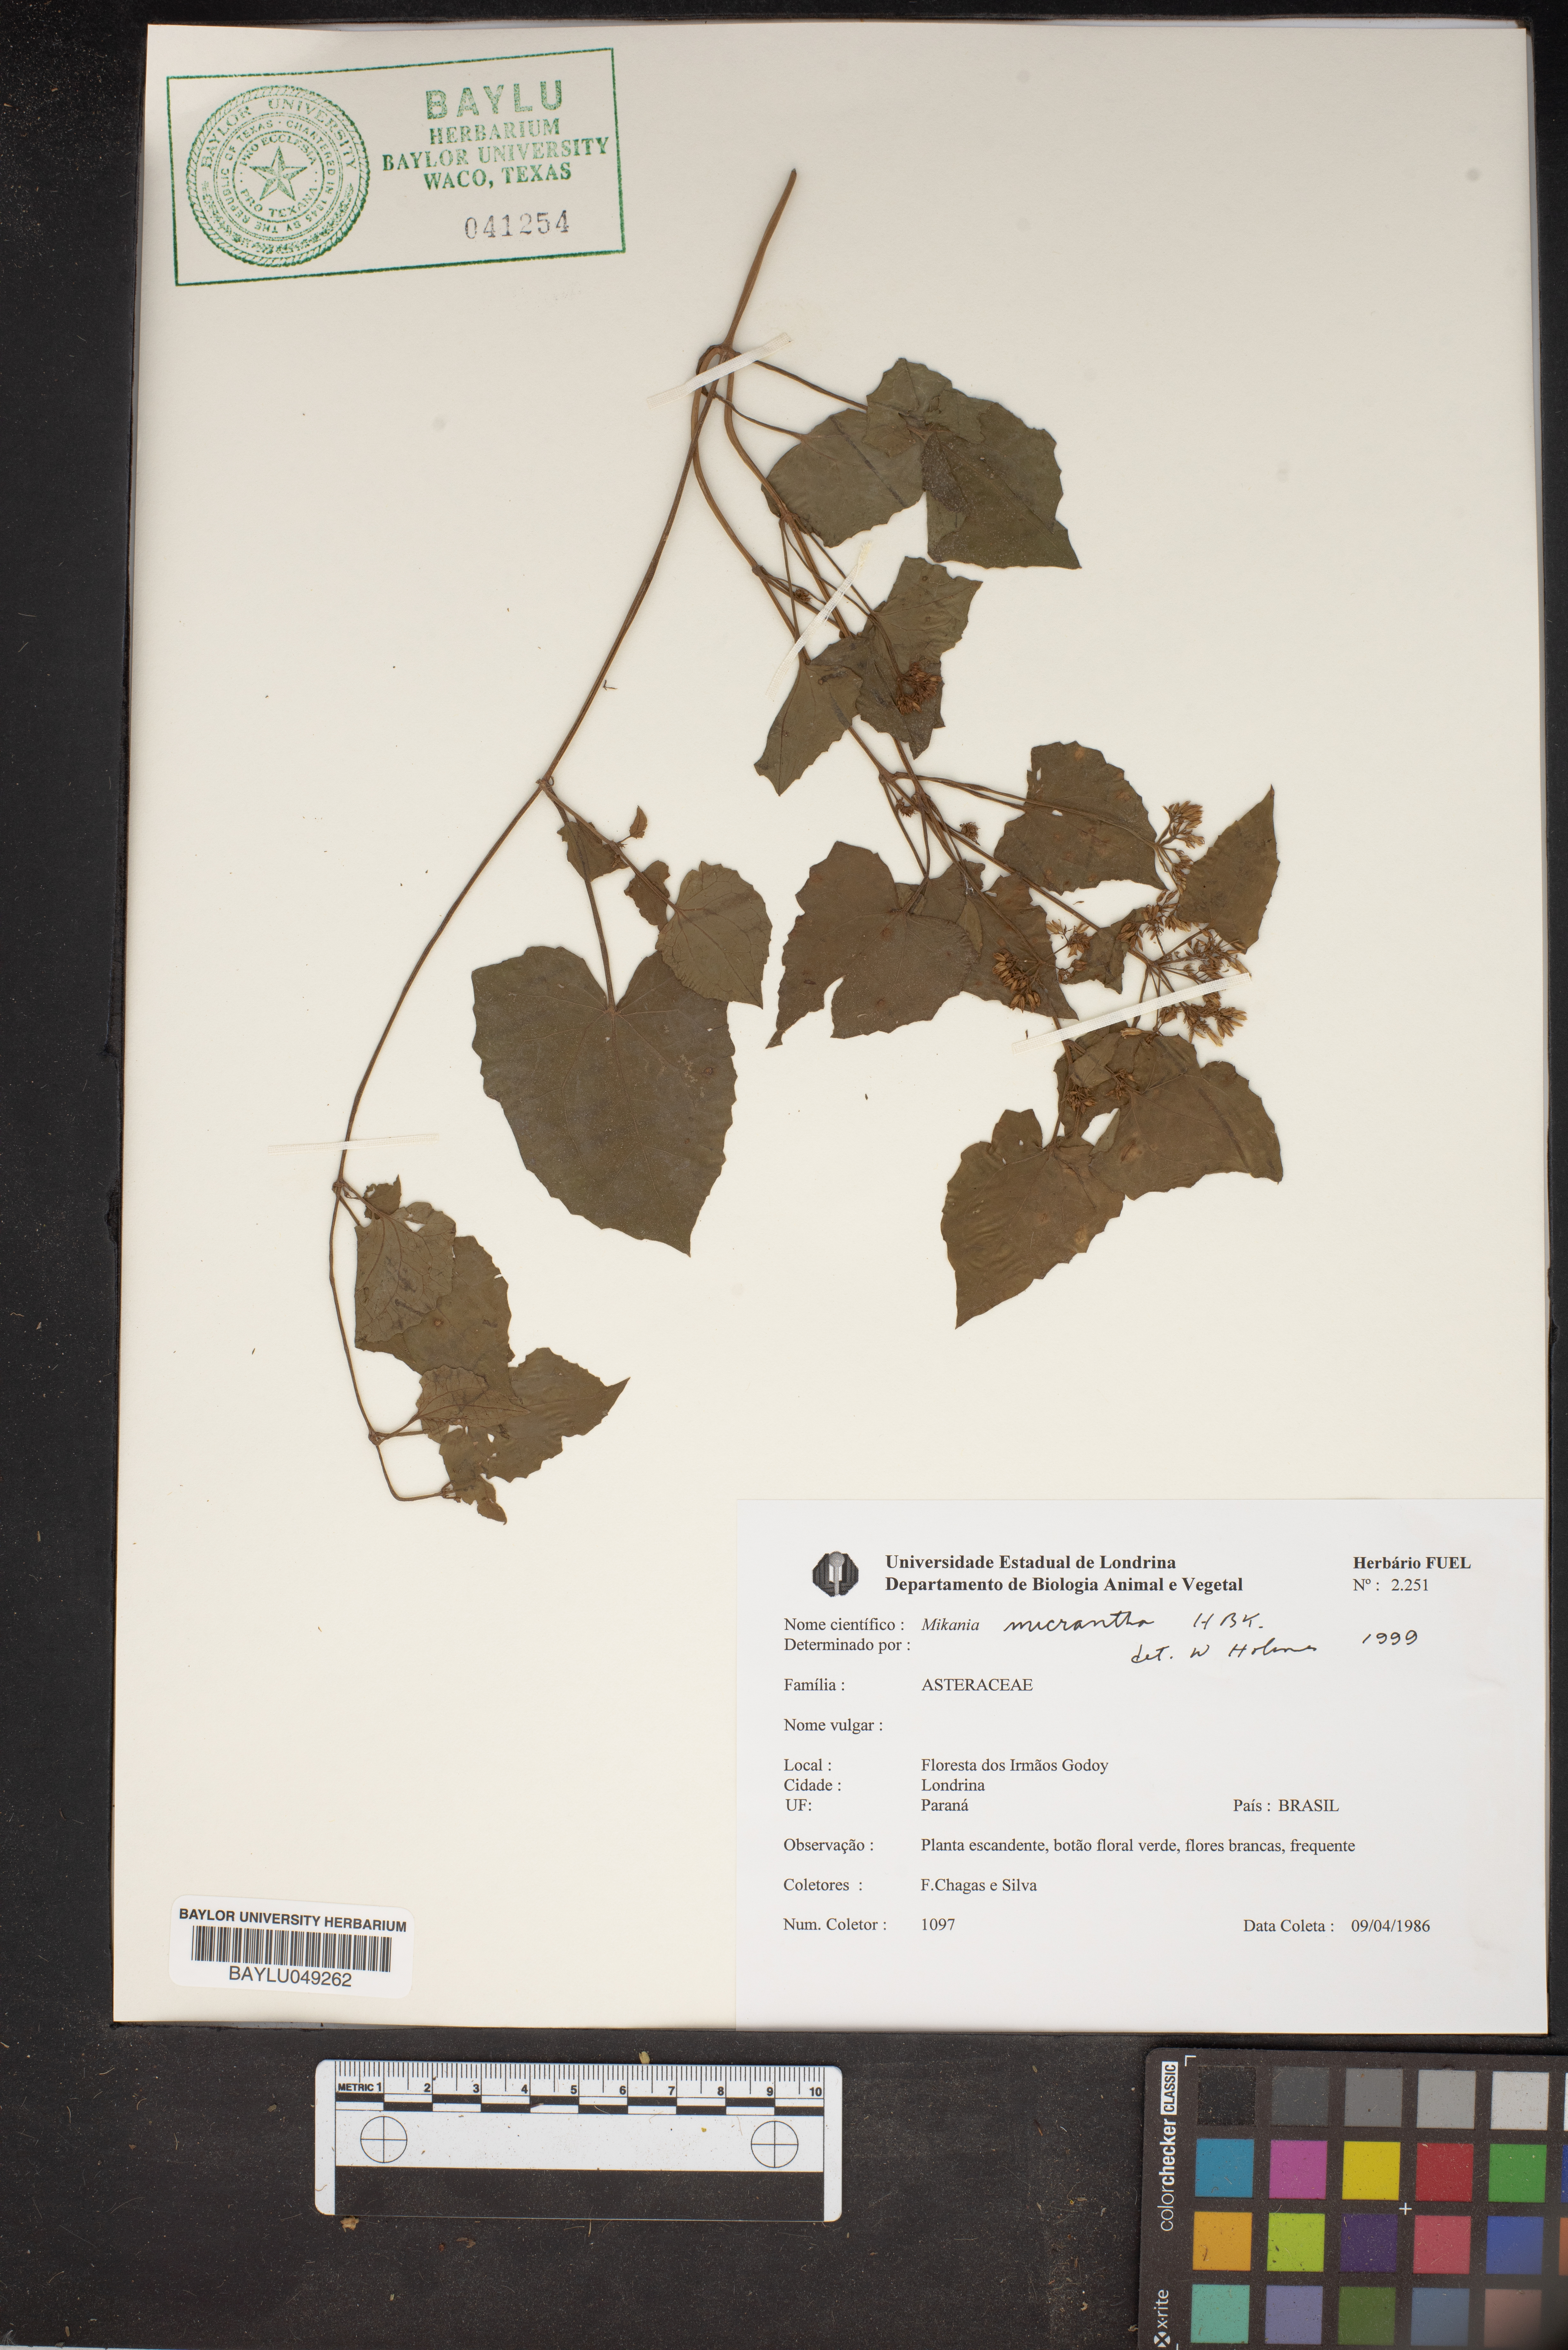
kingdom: Plantae
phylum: Tracheophyta
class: Magnoliopsida
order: Asterales
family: Asteraceae
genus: Mikania
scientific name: Mikania micrantha
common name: Mile-a-minute
